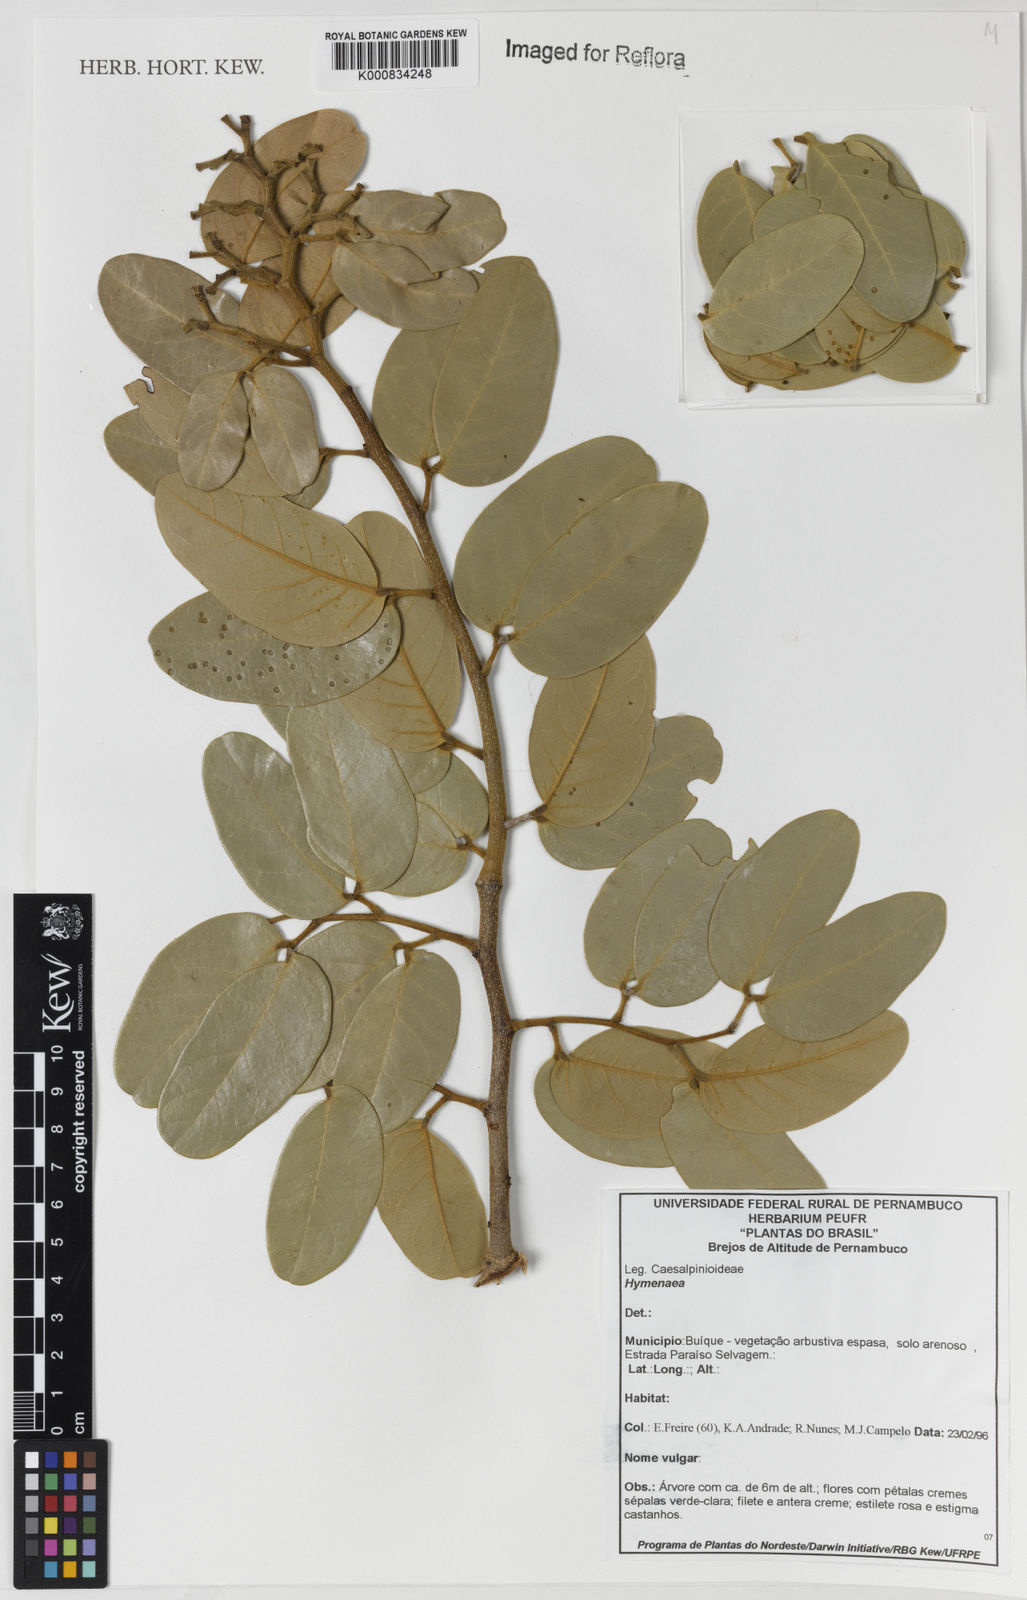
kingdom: Plantae
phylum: Tracheophyta
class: Magnoliopsida
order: Fabales
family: Fabaceae
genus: Hymenaea
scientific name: Hymenaea
